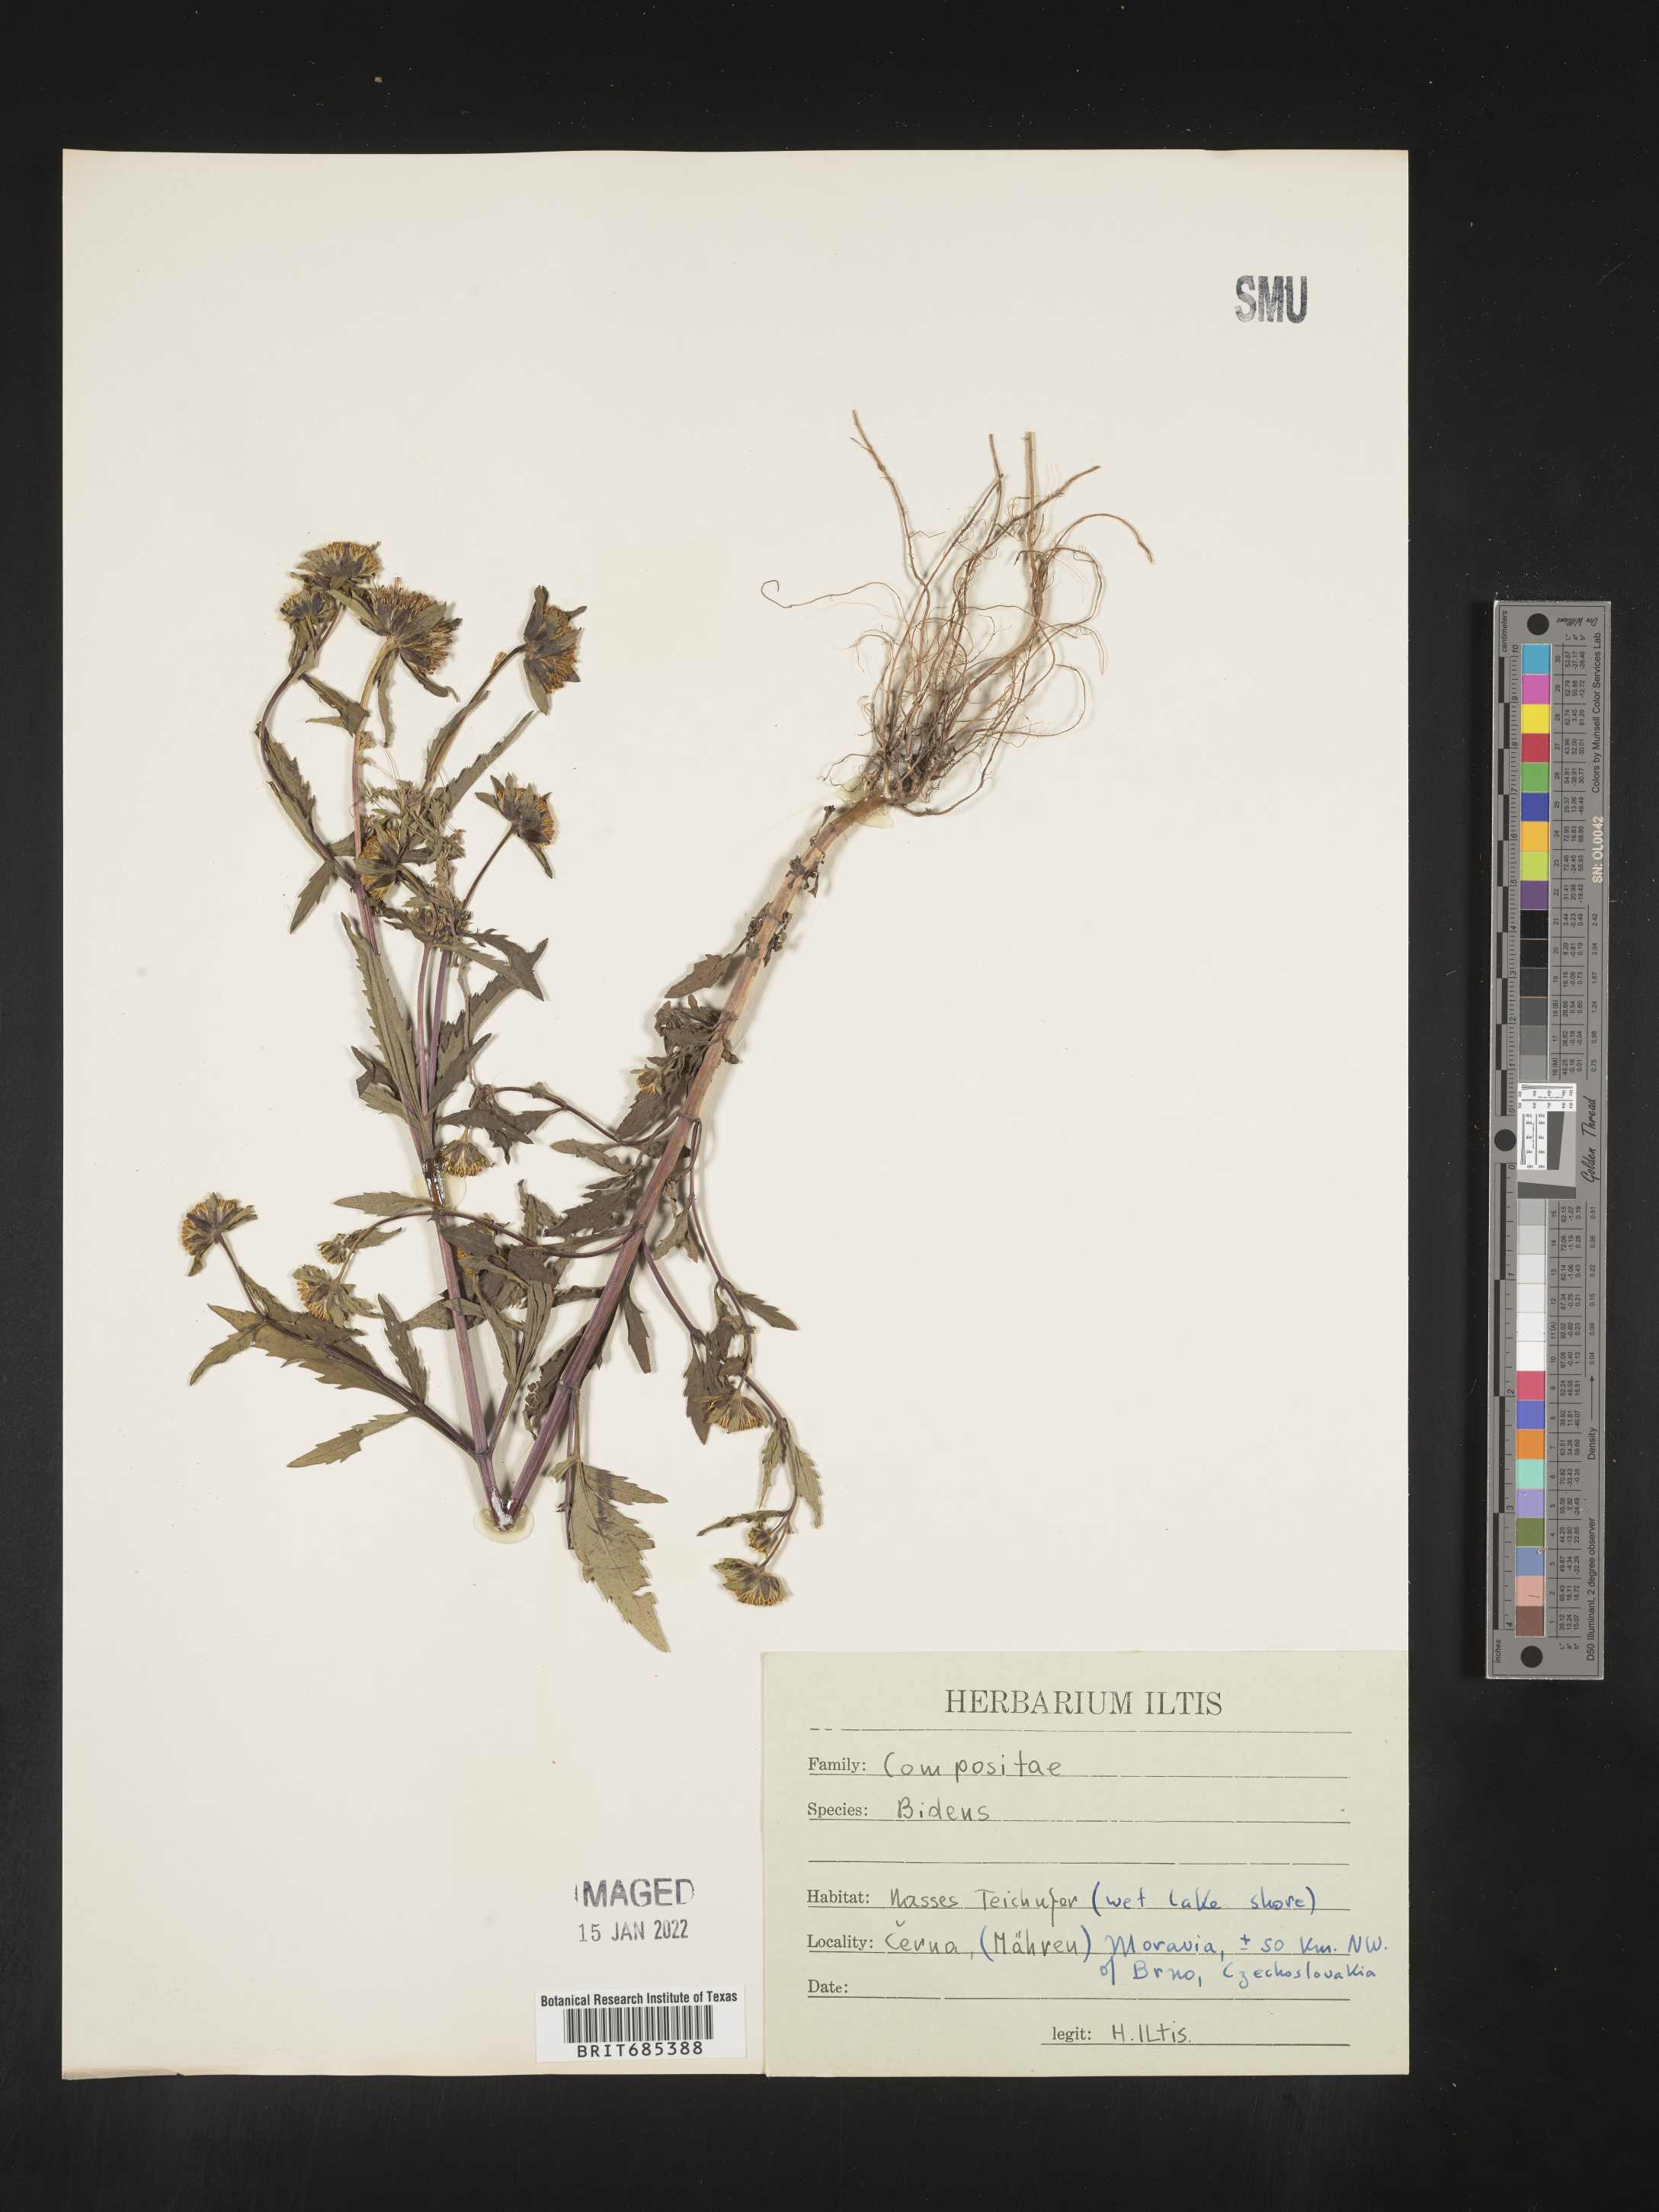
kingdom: Plantae
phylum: Tracheophyta
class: Magnoliopsida
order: Asterales
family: Asteraceae
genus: Bidens
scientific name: Bidens
